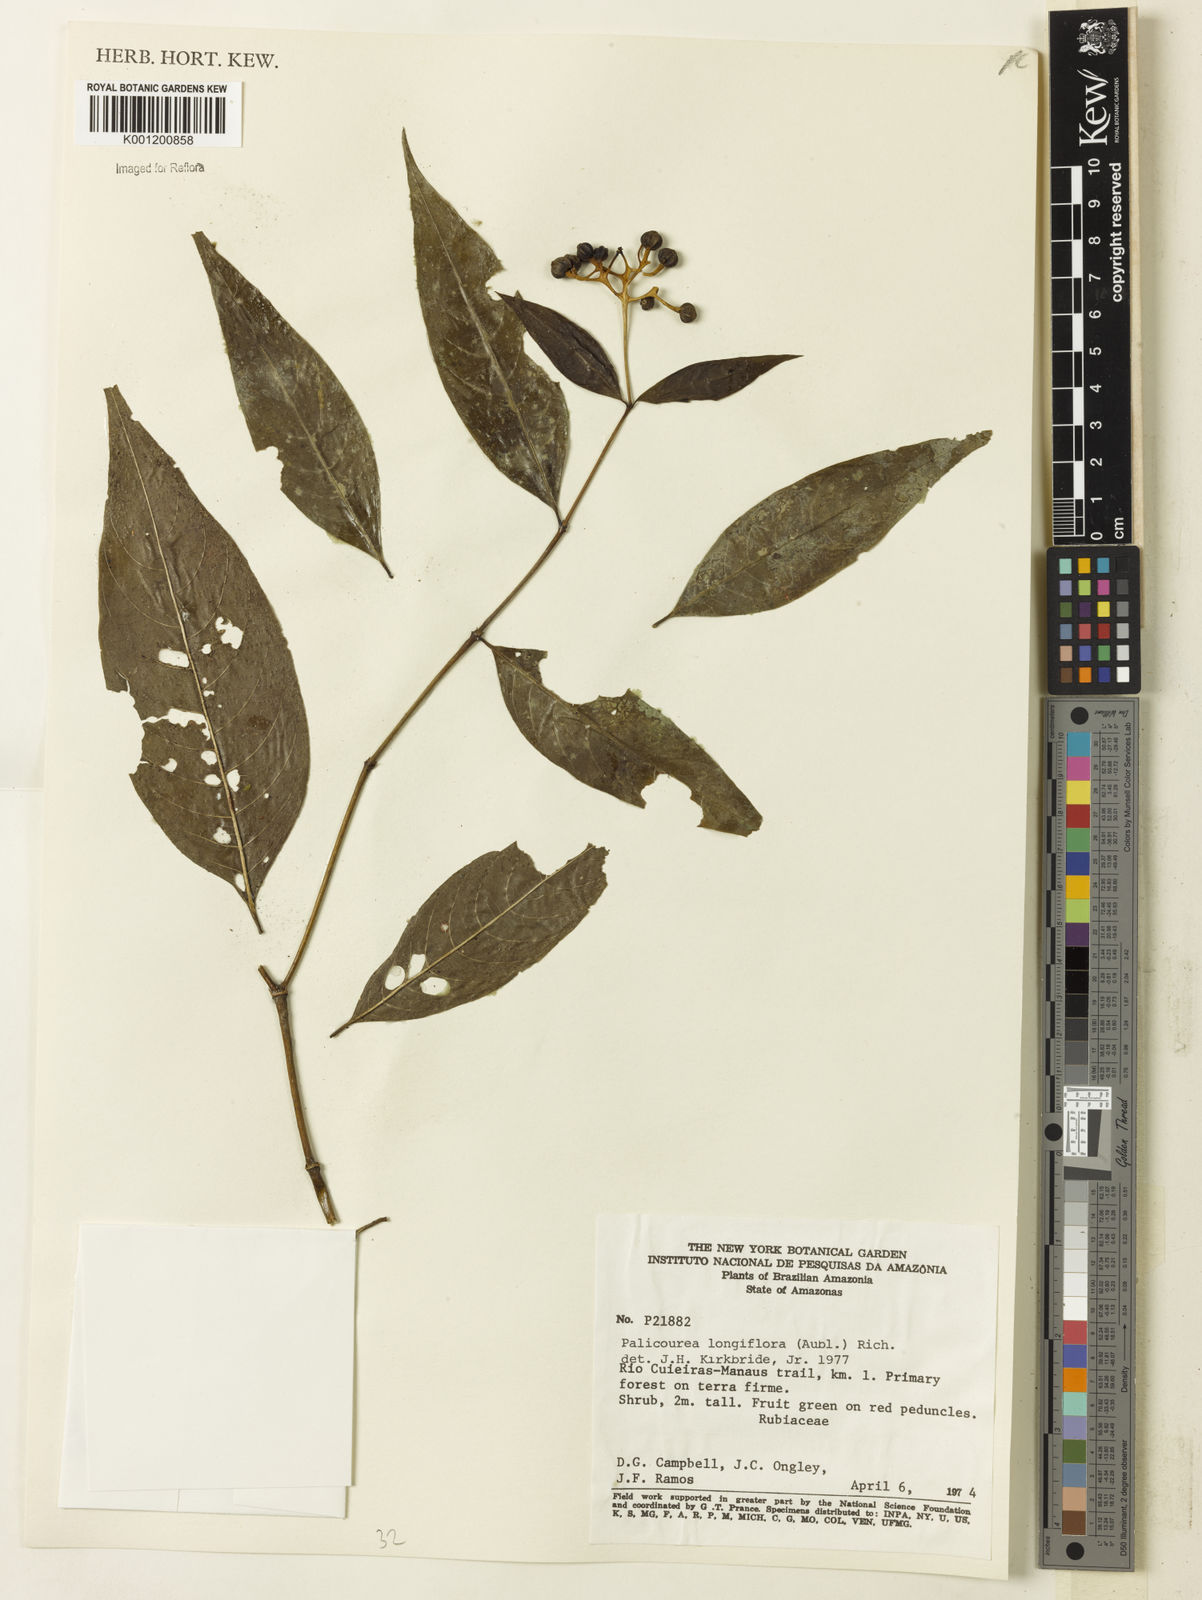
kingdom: Plantae
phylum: Tracheophyta
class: Magnoliopsida
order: Gentianales
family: Rubiaceae
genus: Palicourea
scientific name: Palicourea longiflora
